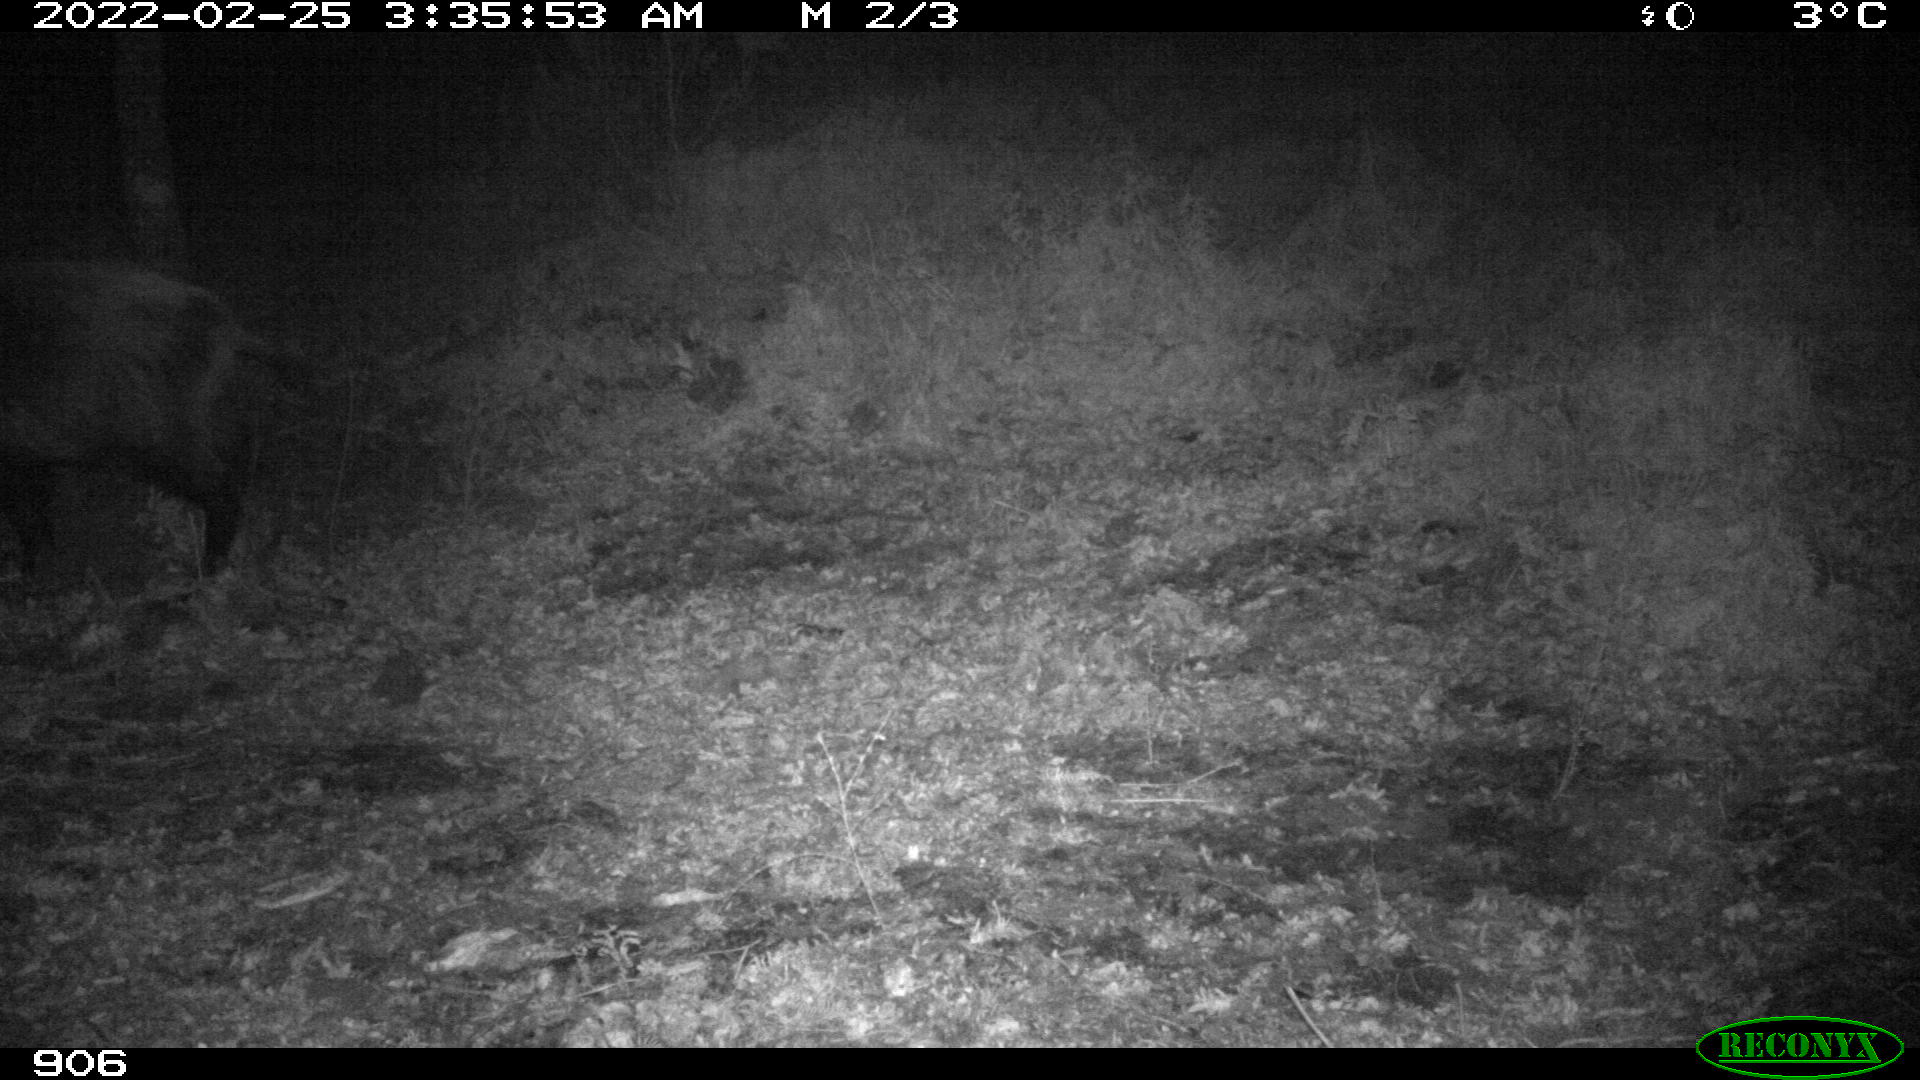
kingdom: Animalia
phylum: Chordata
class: Mammalia
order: Artiodactyla
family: Suidae
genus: Sus
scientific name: Sus scrofa
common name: Wild boar
